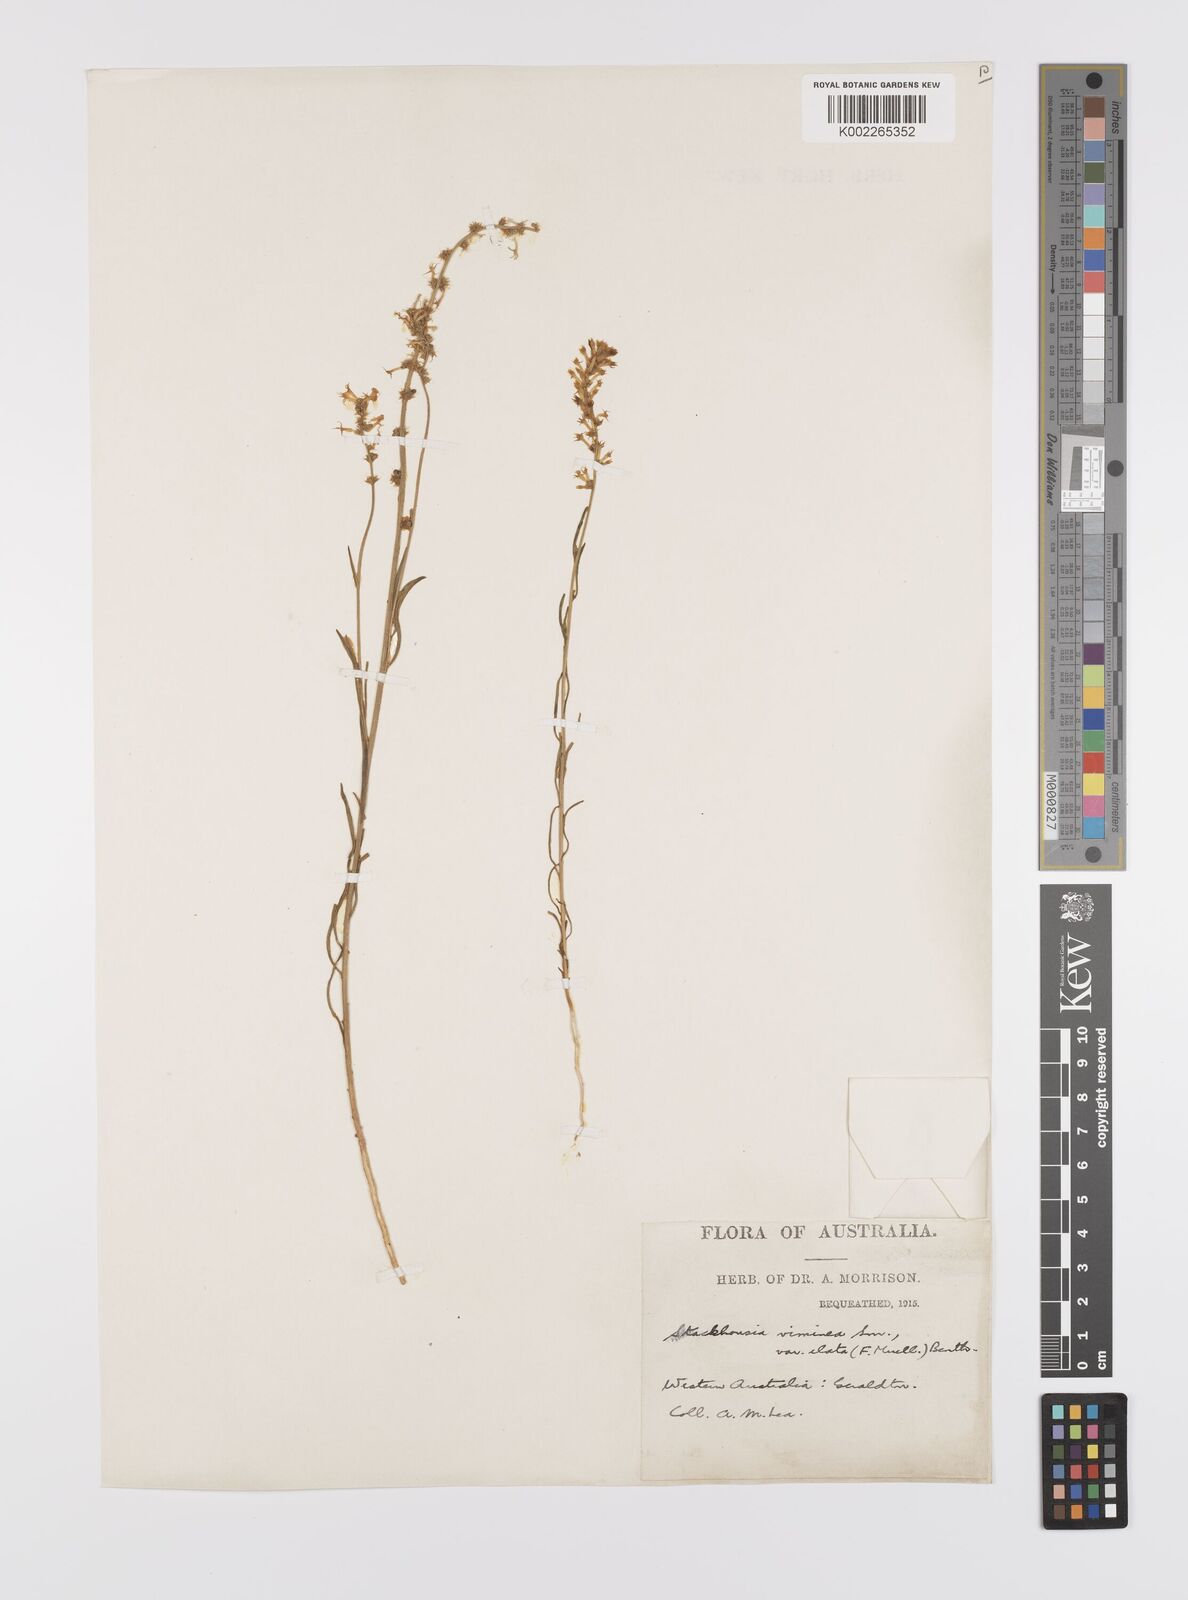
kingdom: Plantae
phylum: Tracheophyta
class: Magnoliopsida
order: Celastrales
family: Celastraceae
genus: Stackhousia
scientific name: Stackhousia muricata
